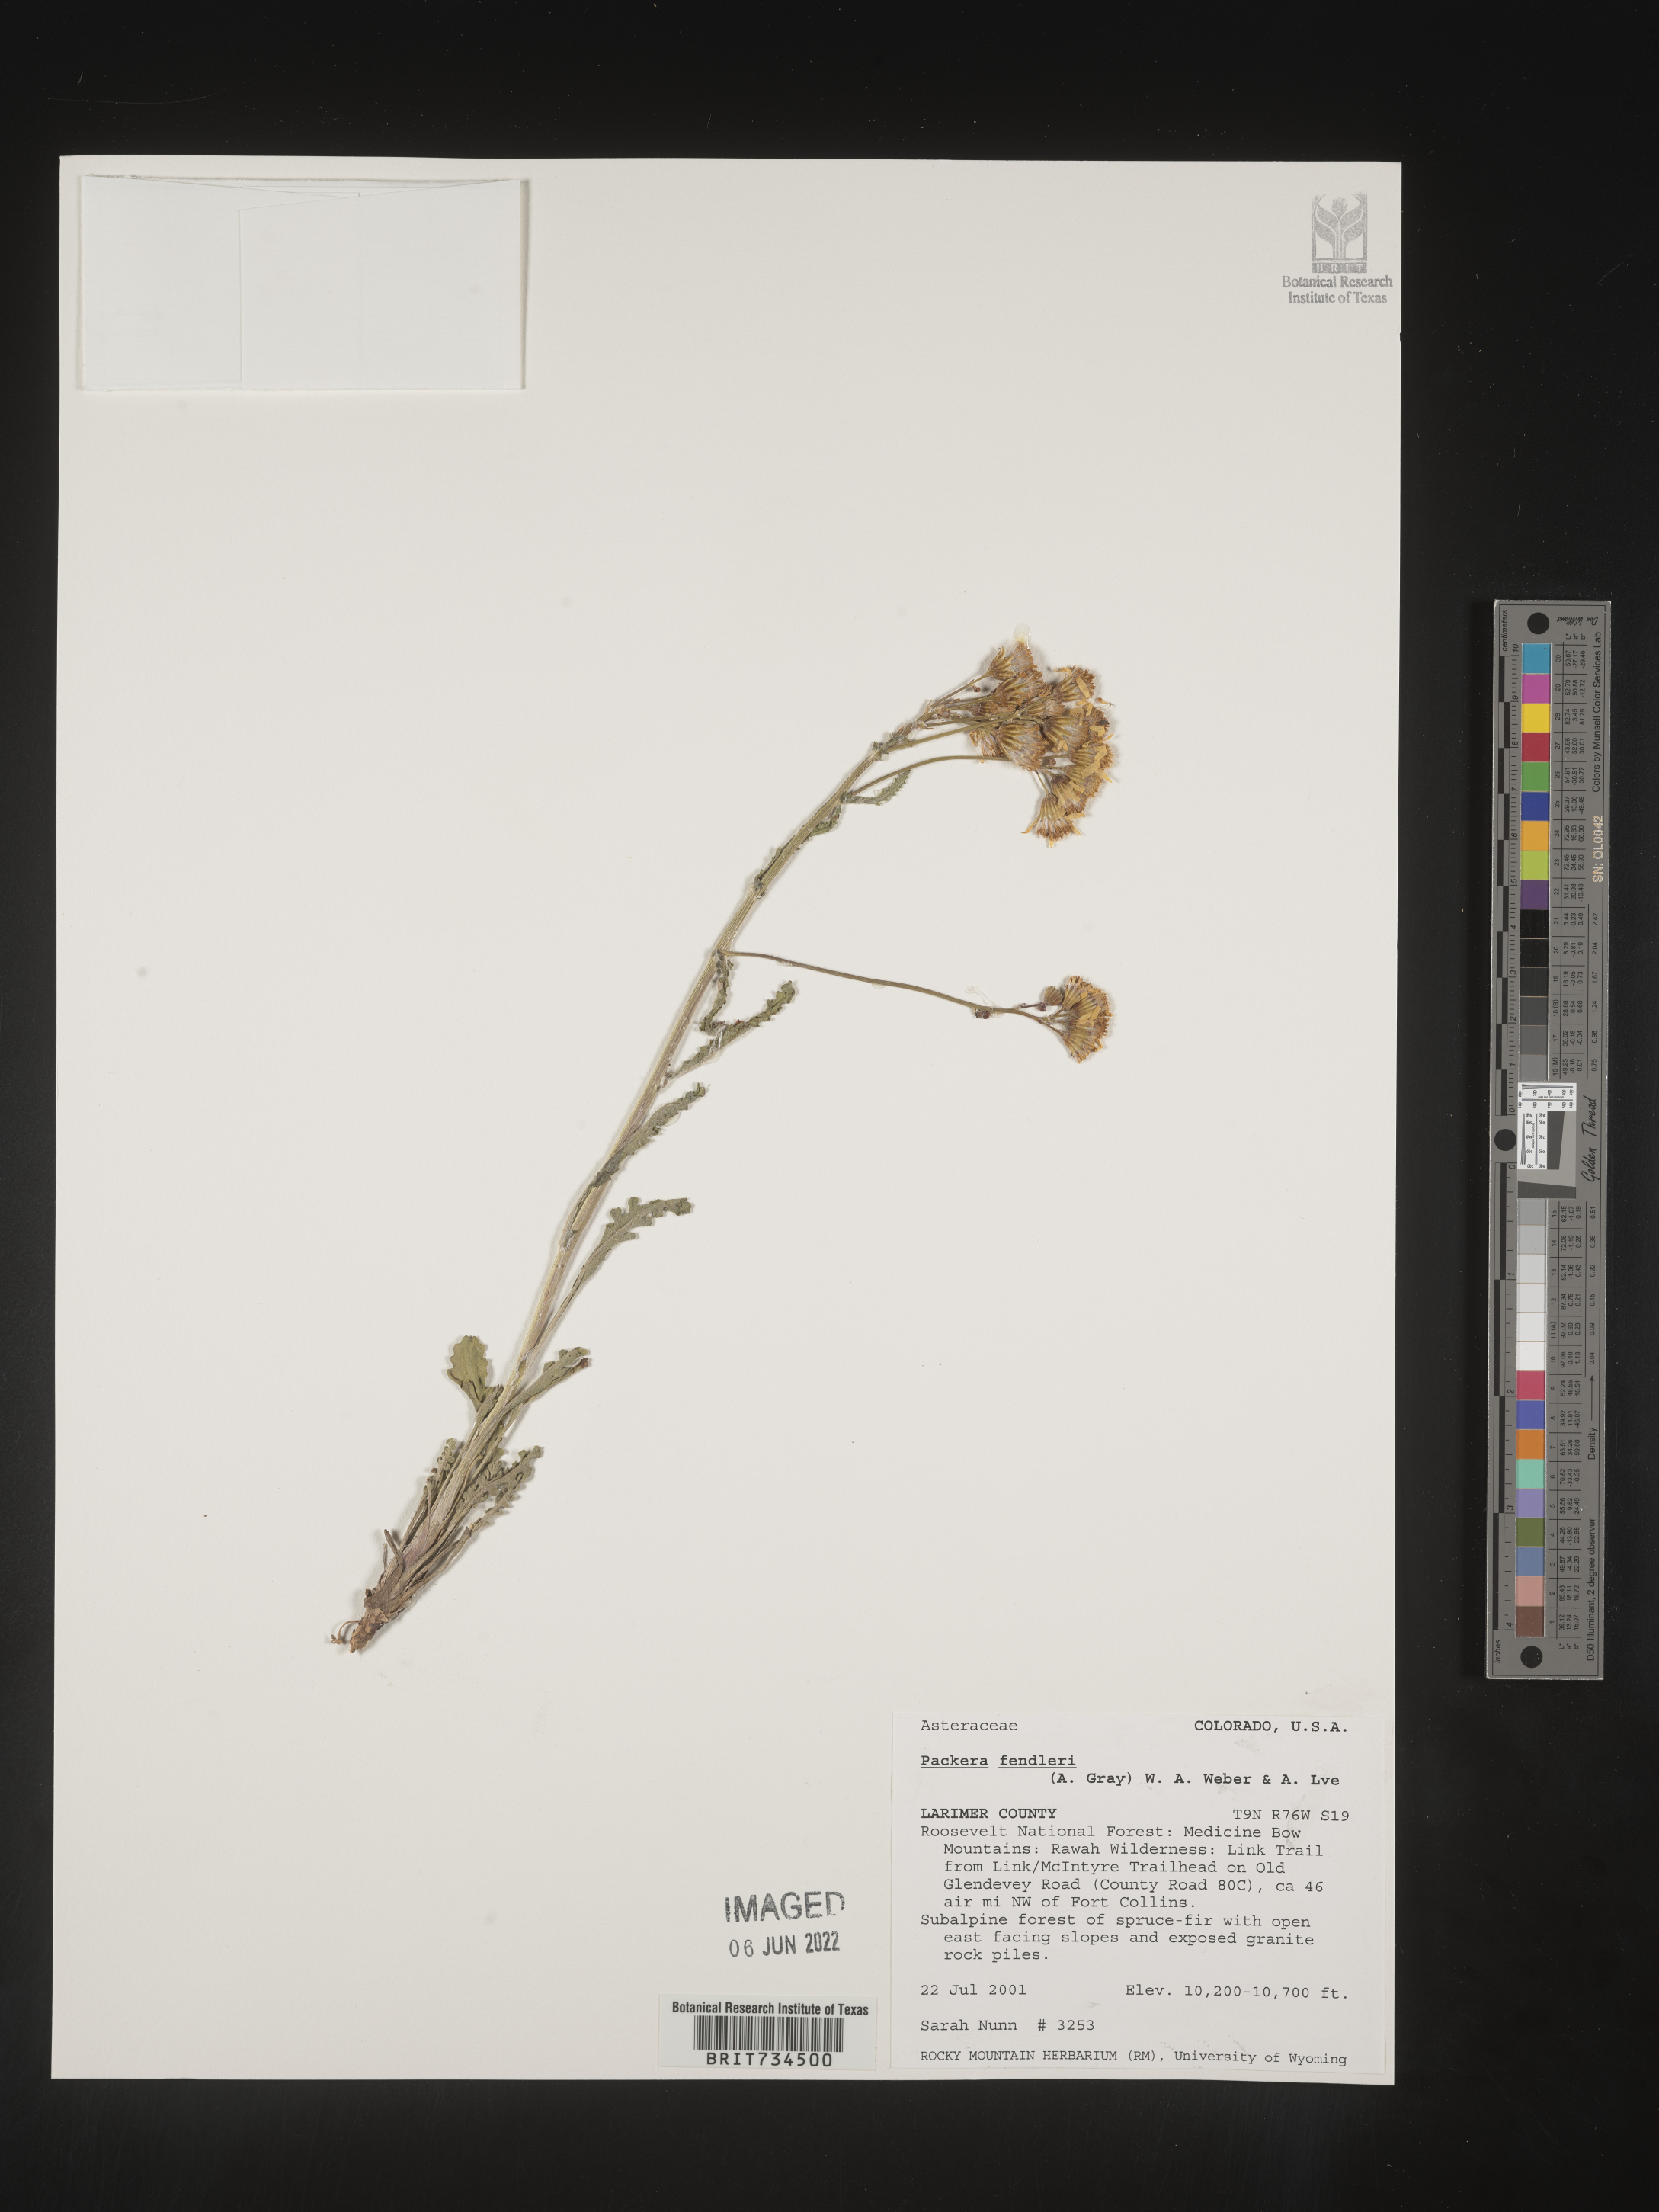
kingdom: Plantae
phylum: Tracheophyta
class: Magnoliopsida
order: Asterales
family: Asteraceae
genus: Packera
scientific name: Packera fendleri
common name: Notch-leaf butterweed
